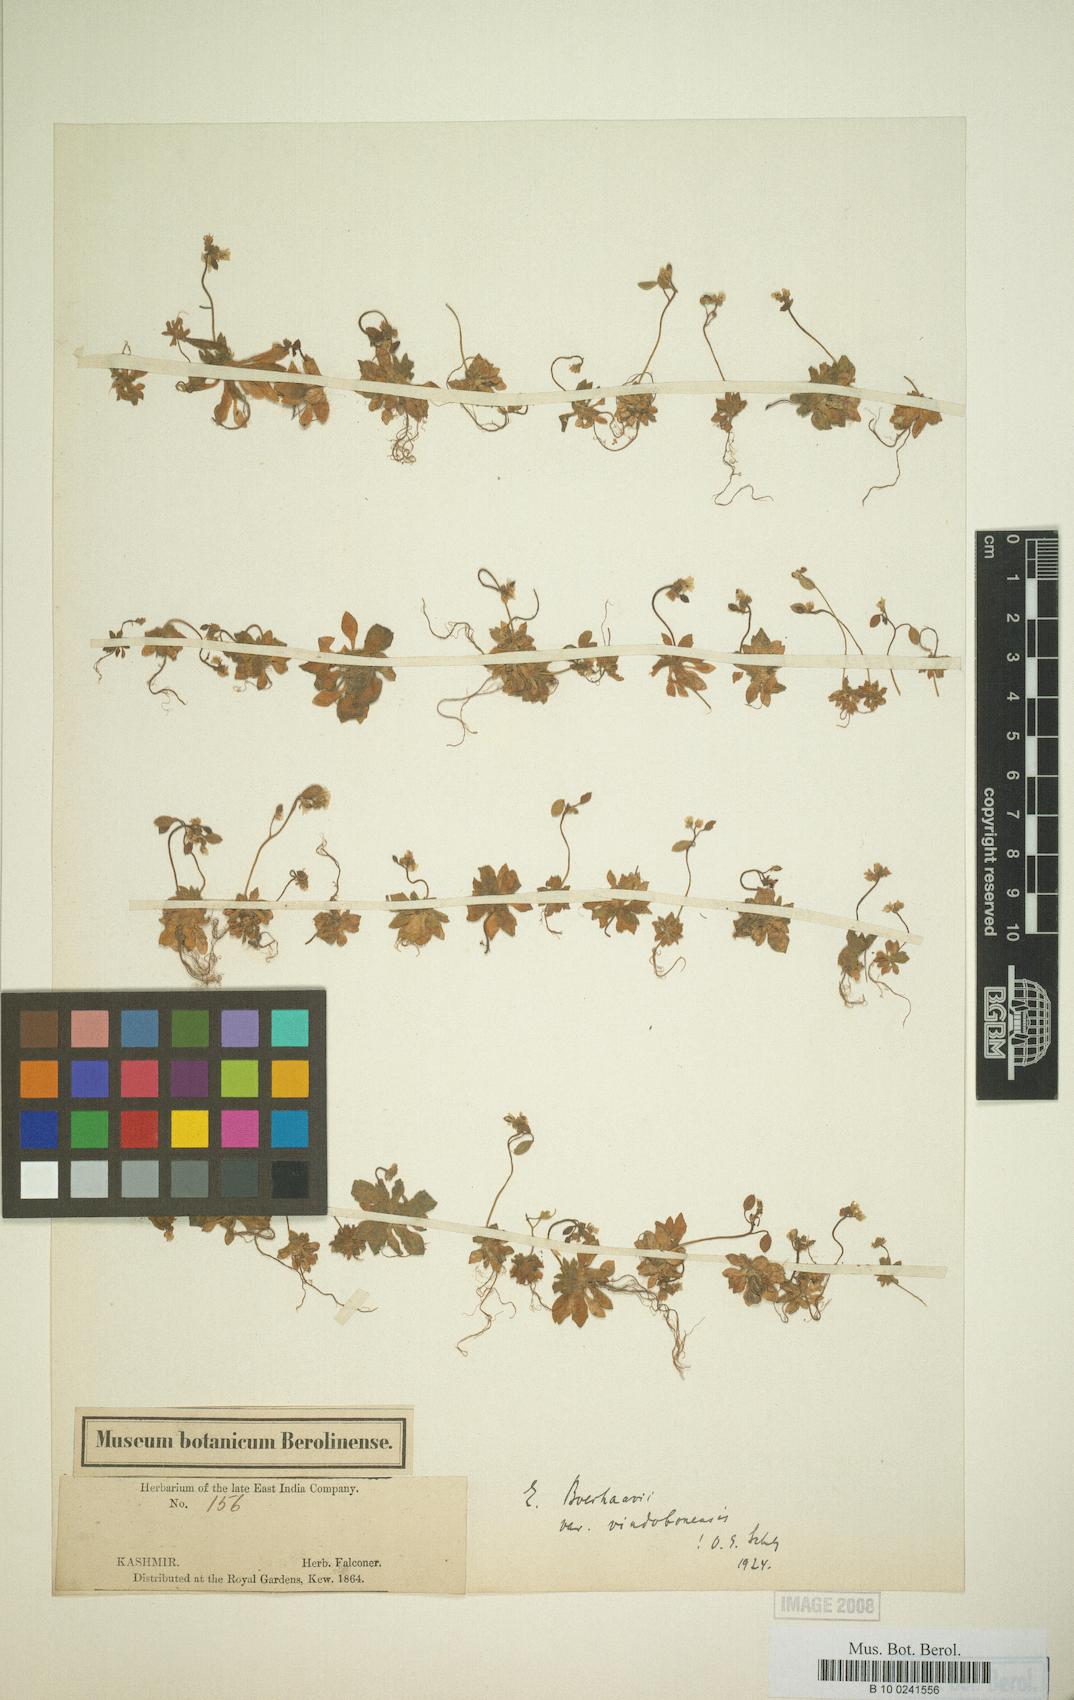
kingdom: Plantae
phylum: Tracheophyta
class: Magnoliopsida
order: Brassicales
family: Brassicaceae
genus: Draba
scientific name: Draba verna
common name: Spring draba
